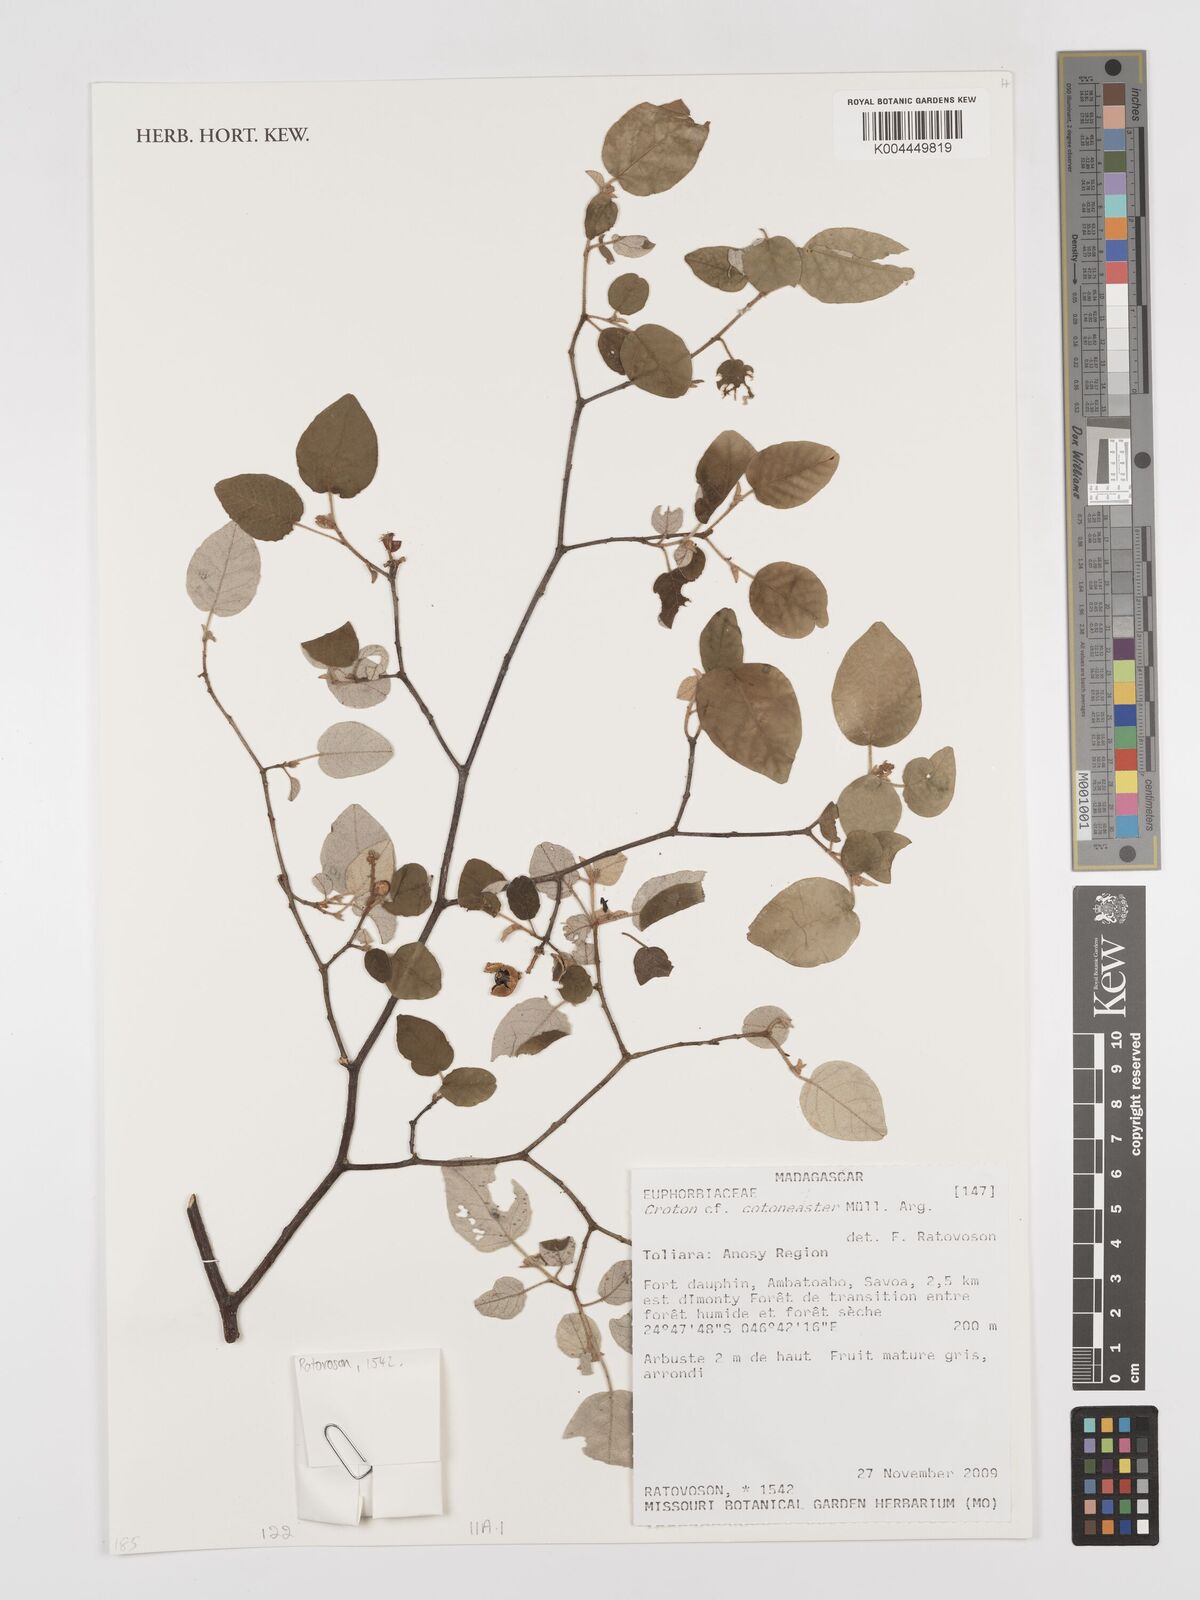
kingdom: Plantae
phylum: Tracheophyta
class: Magnoliopsida
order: Malpighiales
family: Euphorbiaceae
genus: Croton
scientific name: Croton cotoneaster
